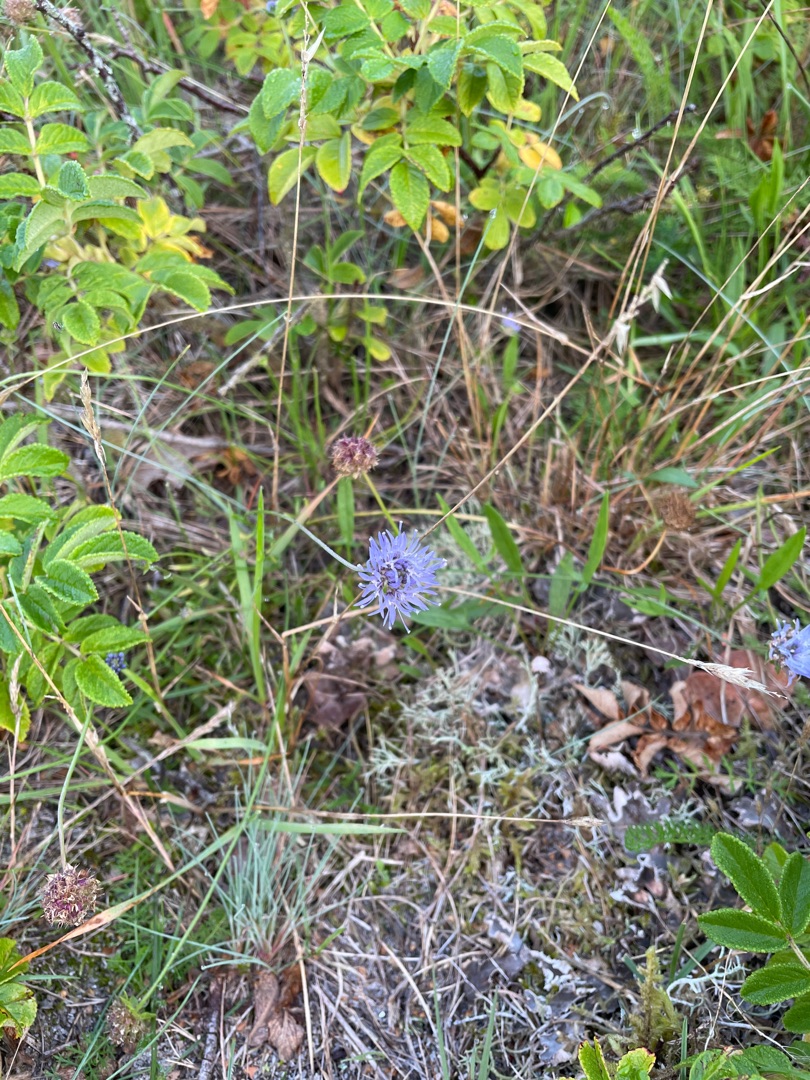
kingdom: Plantae
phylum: Tracheophyta
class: Magnoliopsida
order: Asterales
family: Campanulaceae
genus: Jasione
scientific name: Jasione montana
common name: Blåmunke
